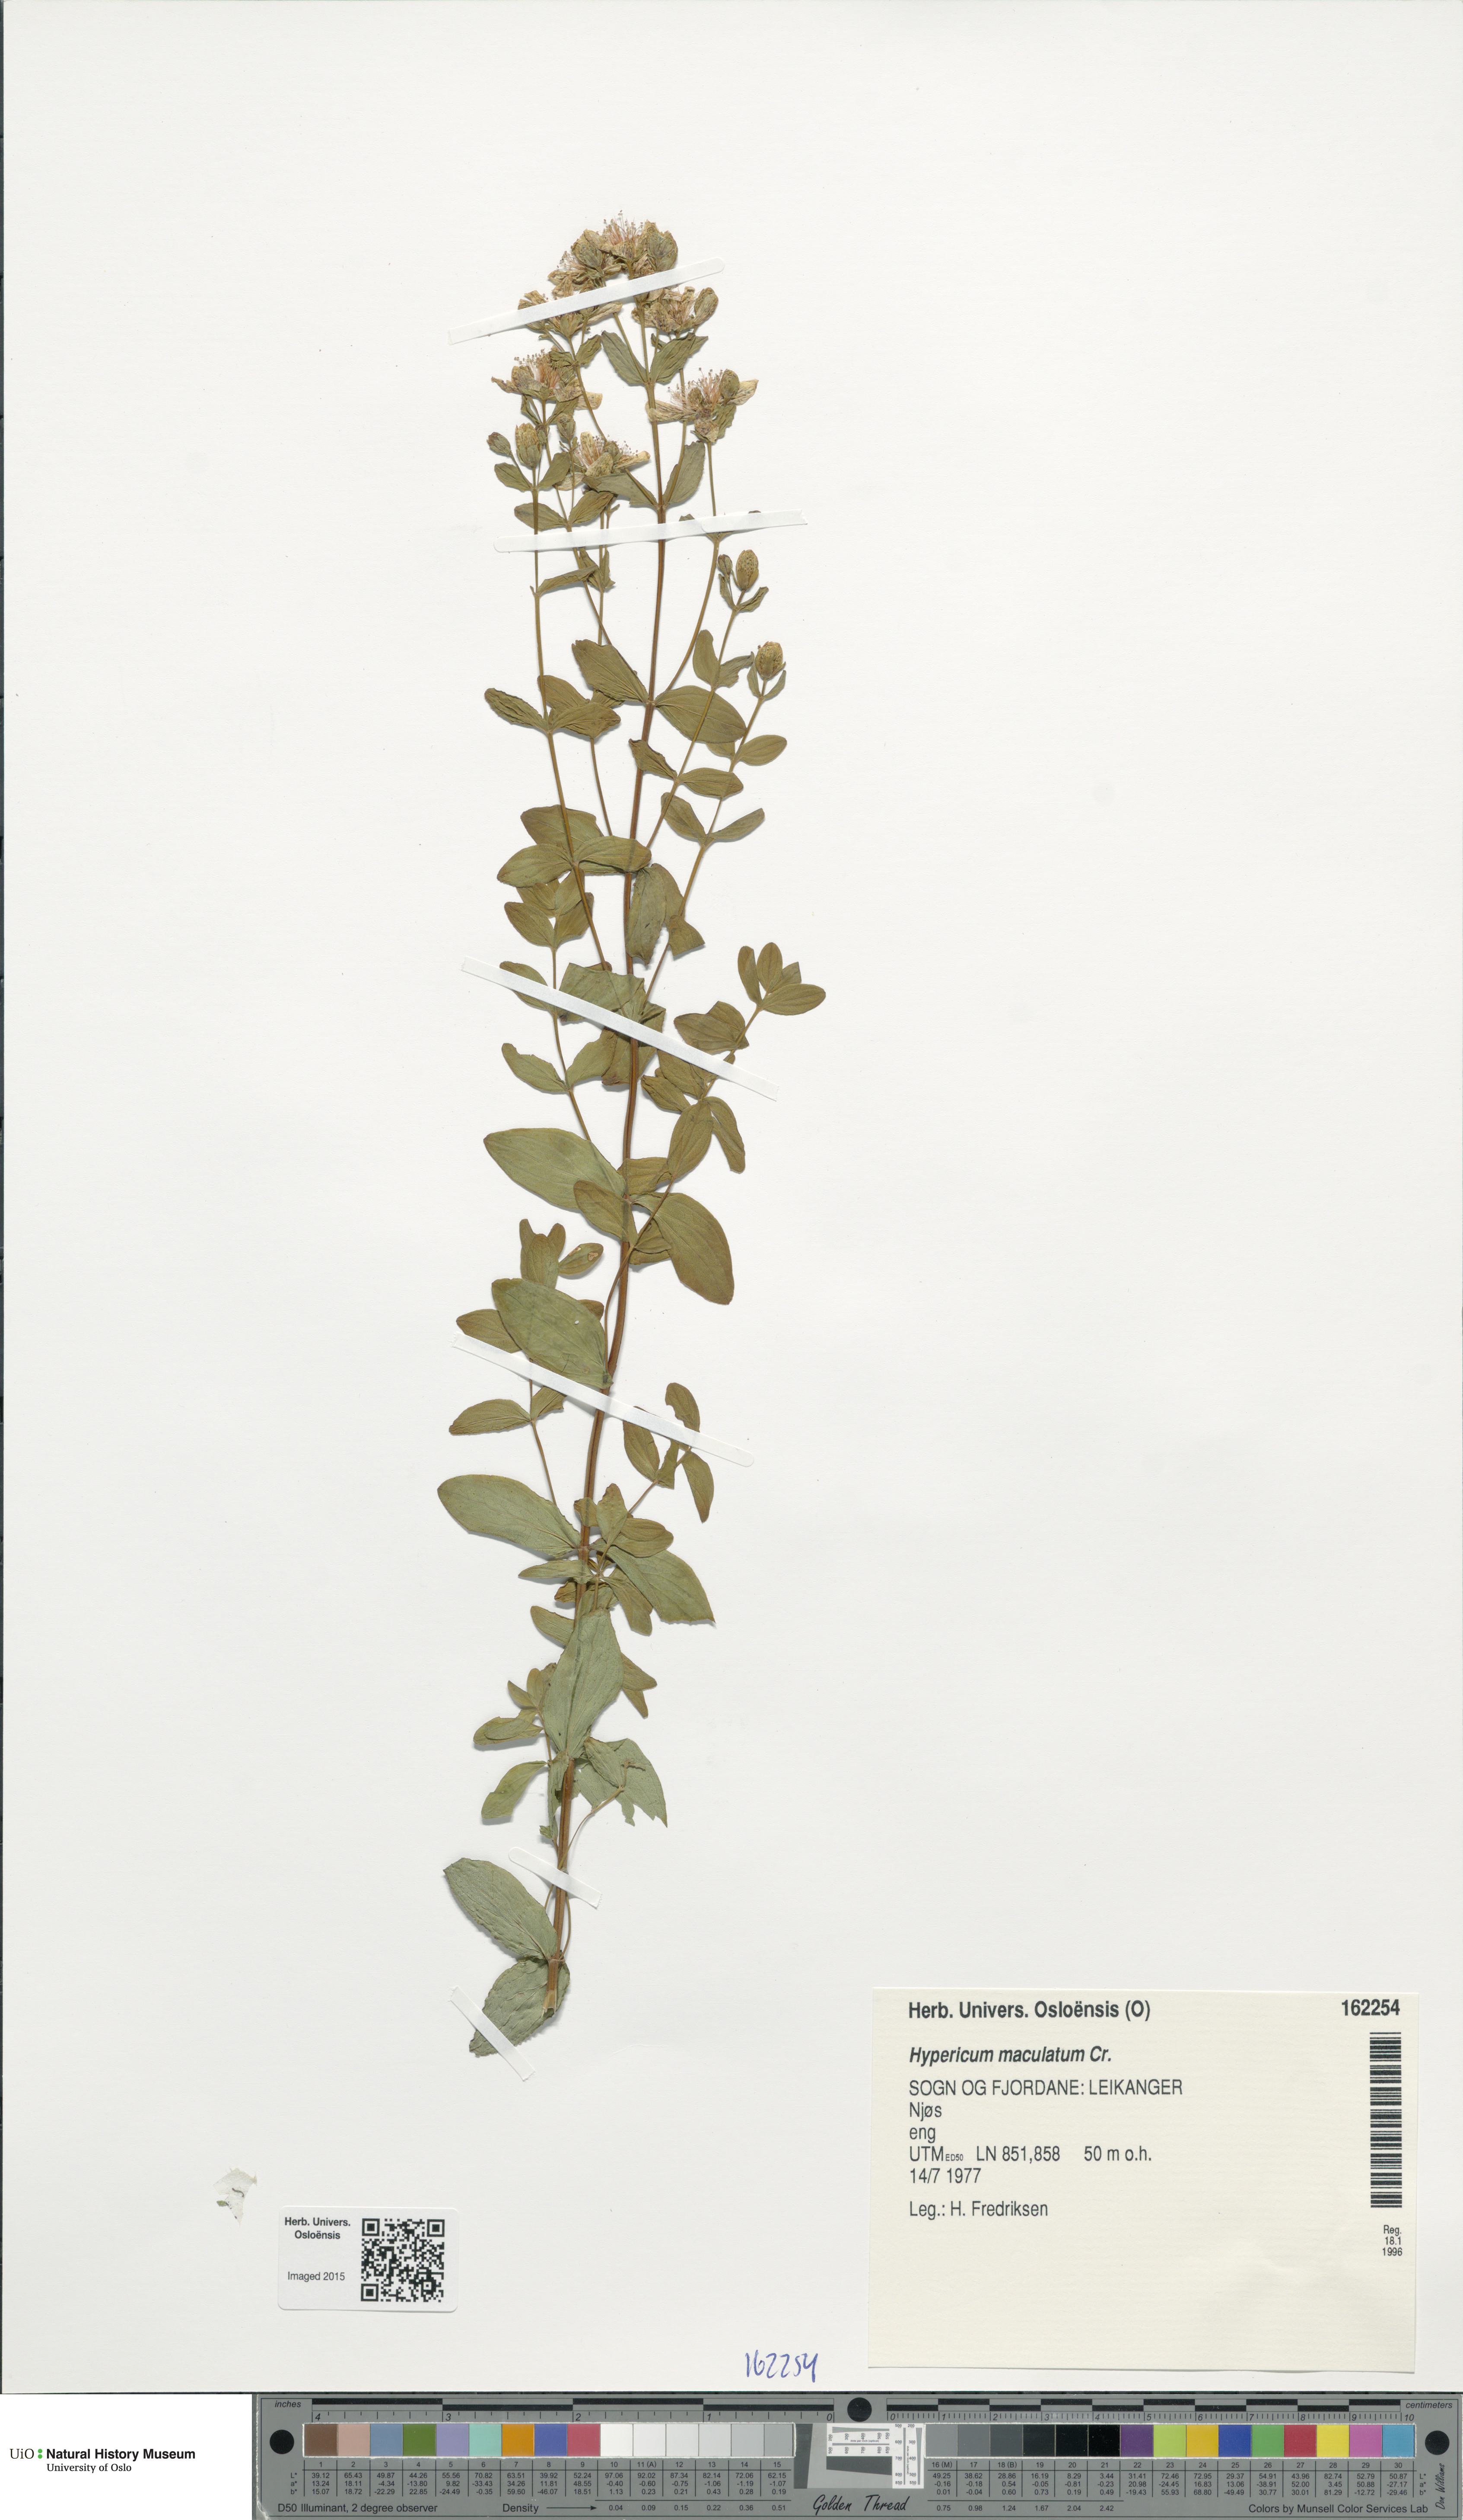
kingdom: Plantae
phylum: Tracheophyta
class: Magnoliopsida
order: Malpighiales
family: Hypericaceae
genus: Hypericum
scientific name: Hypericum maculatum
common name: Imperforate st. john's-wort
